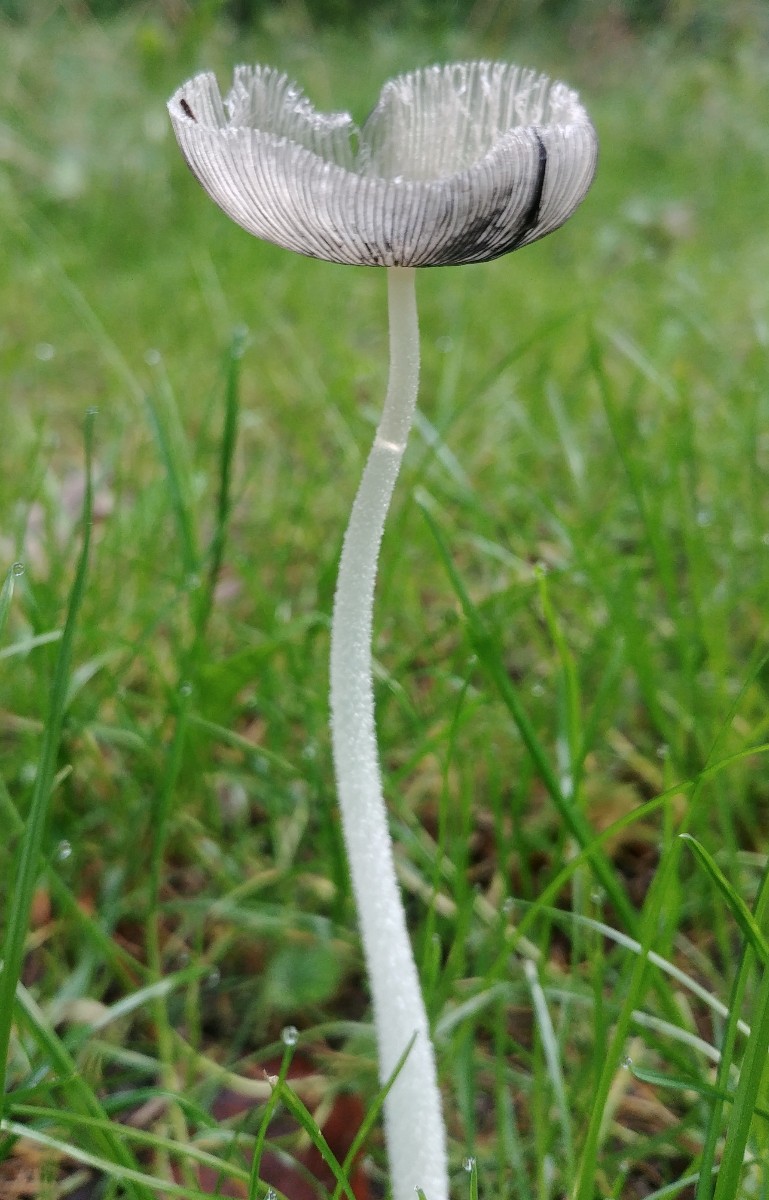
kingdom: Fungi
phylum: Basidiomycota
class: Agaricomycetes
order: Agaricales
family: Psathyrellaceae
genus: Coprinopsis
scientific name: Coprinopsis lagopus
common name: dunstokket blækhat
